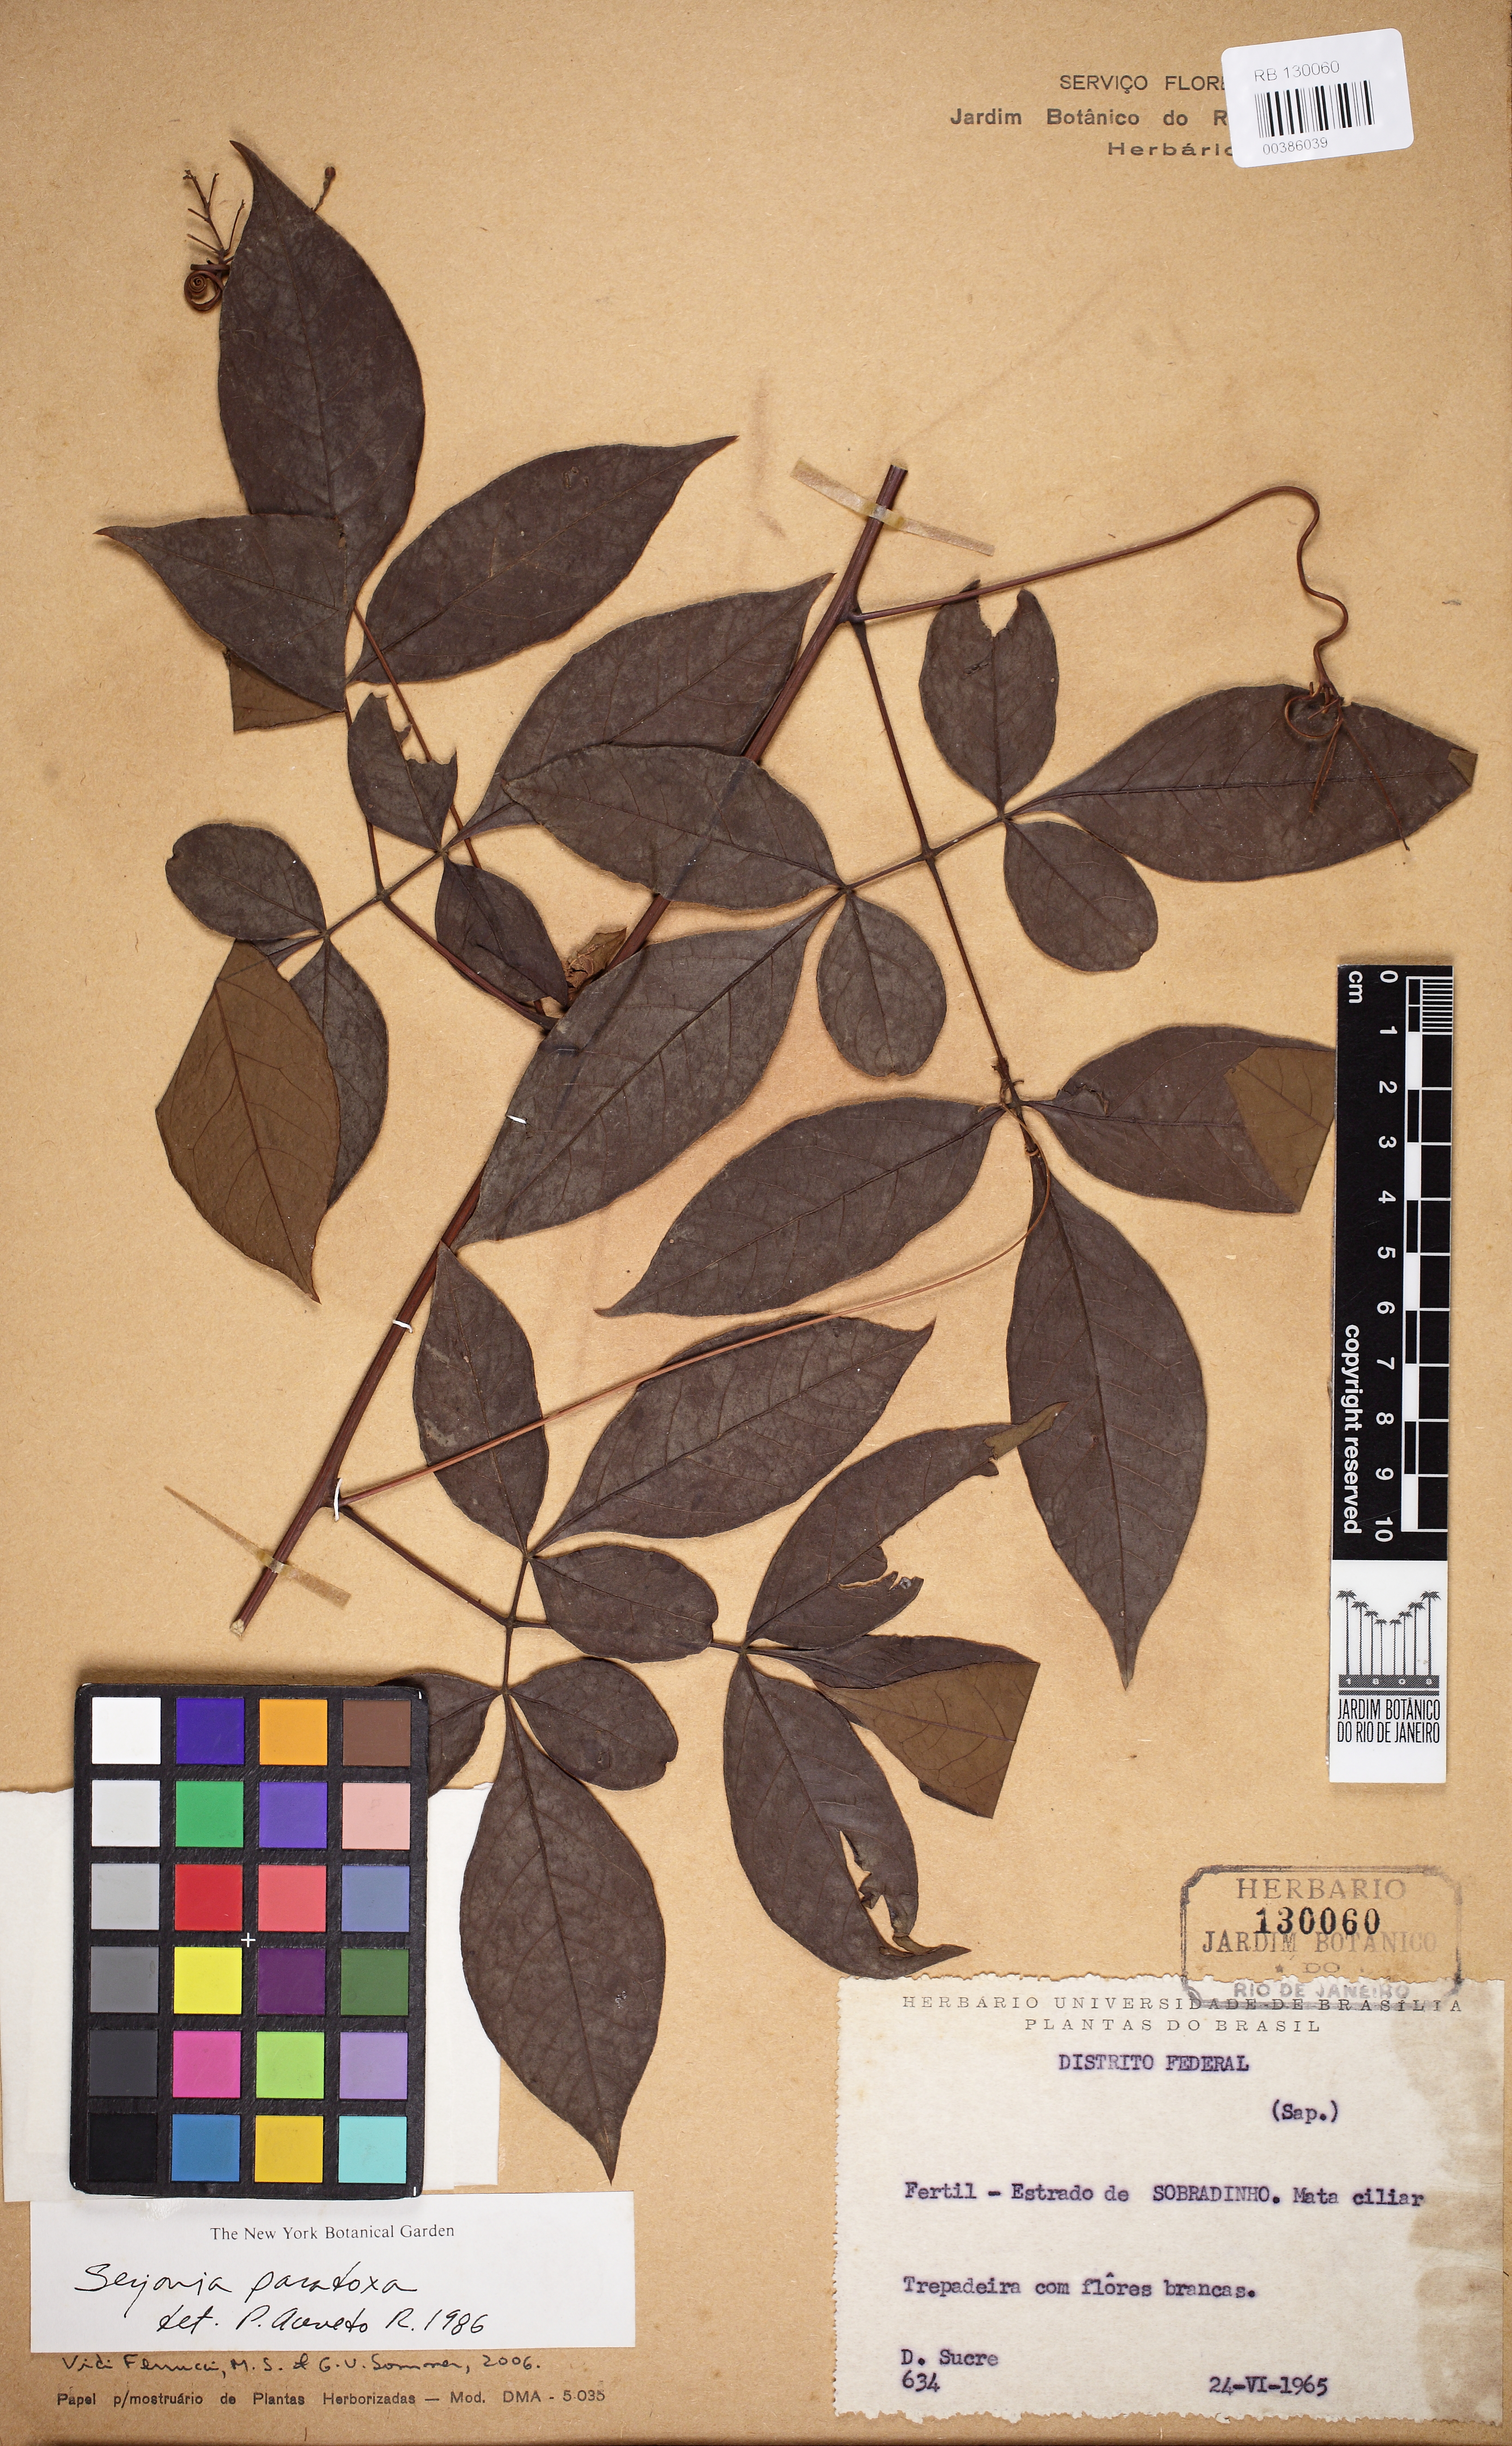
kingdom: Plantae
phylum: Tracheophyta
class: Magnoliopsida
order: Sapindales
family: Sapindaceae
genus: Serjania
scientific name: Serjania paradoxa
